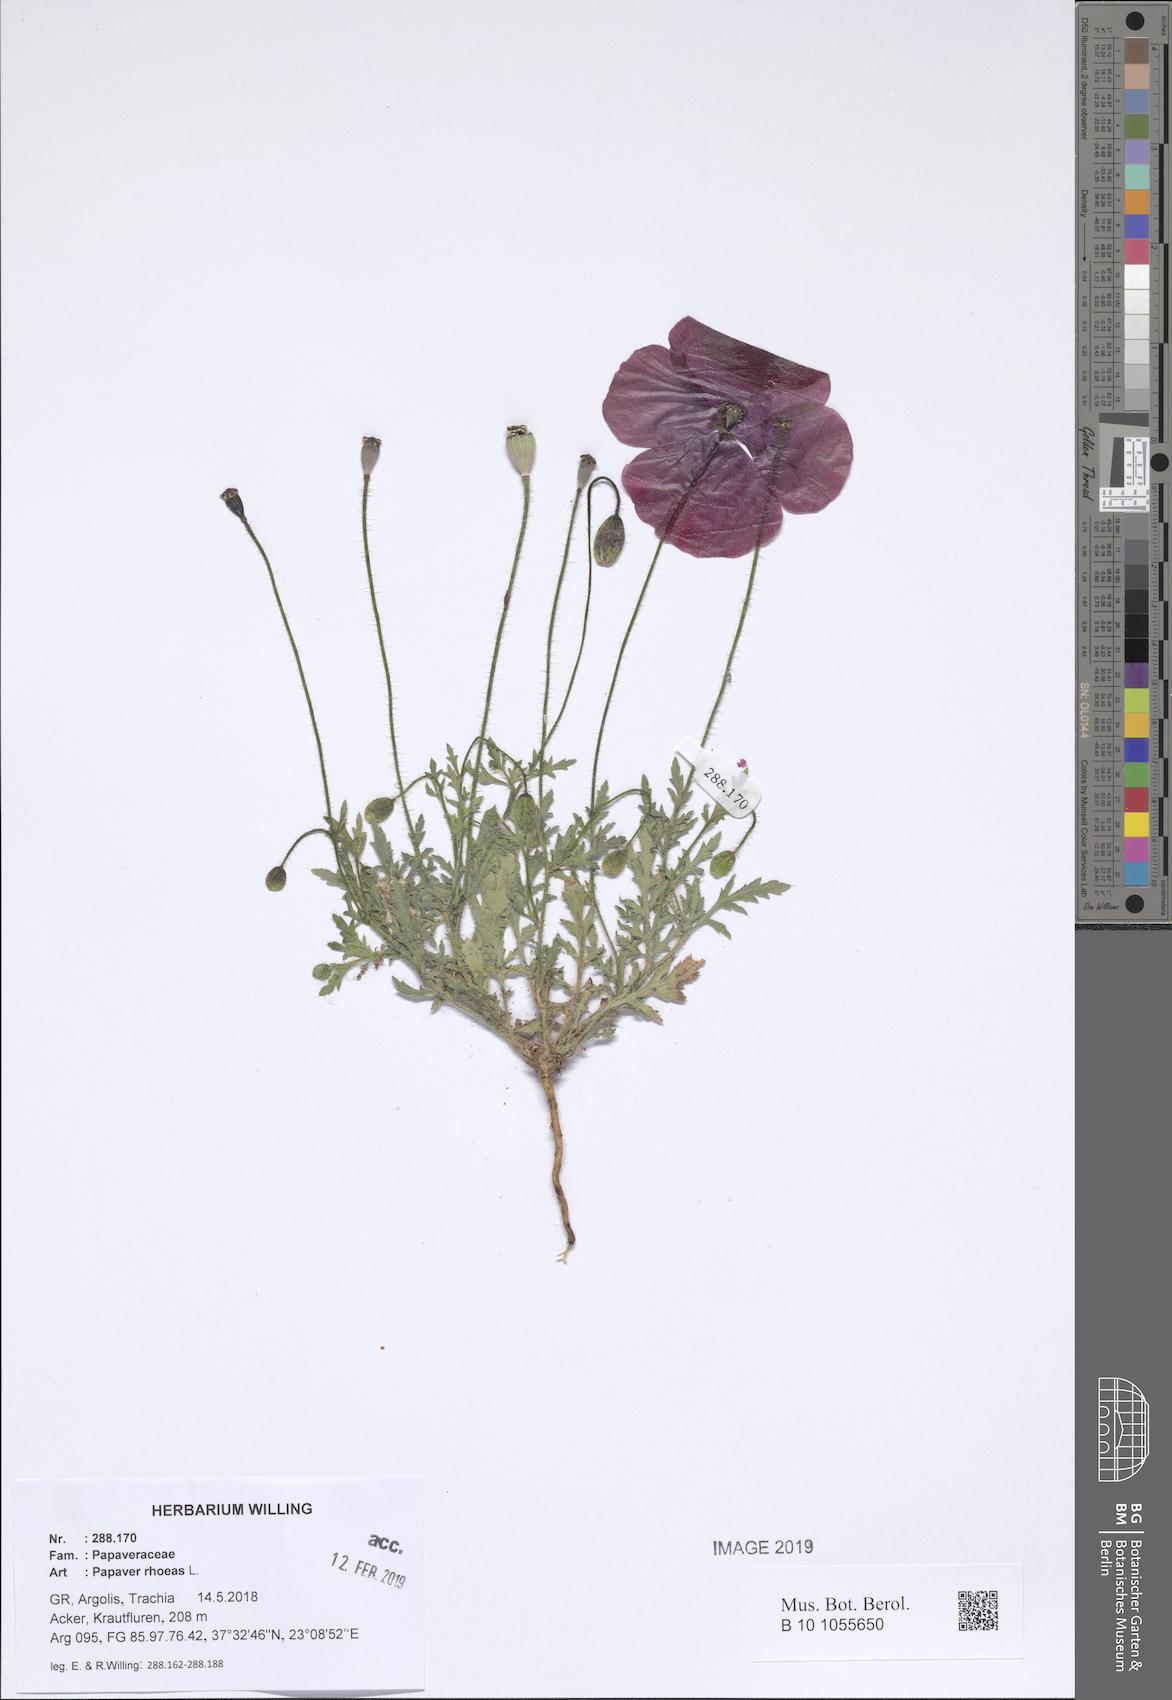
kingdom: Plantae
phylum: Tracheophyta
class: Magnoliopsida
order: Ranunculales
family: Papaveraceae
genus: Papaver
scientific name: Papaver rhoeas
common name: Corn poppy
